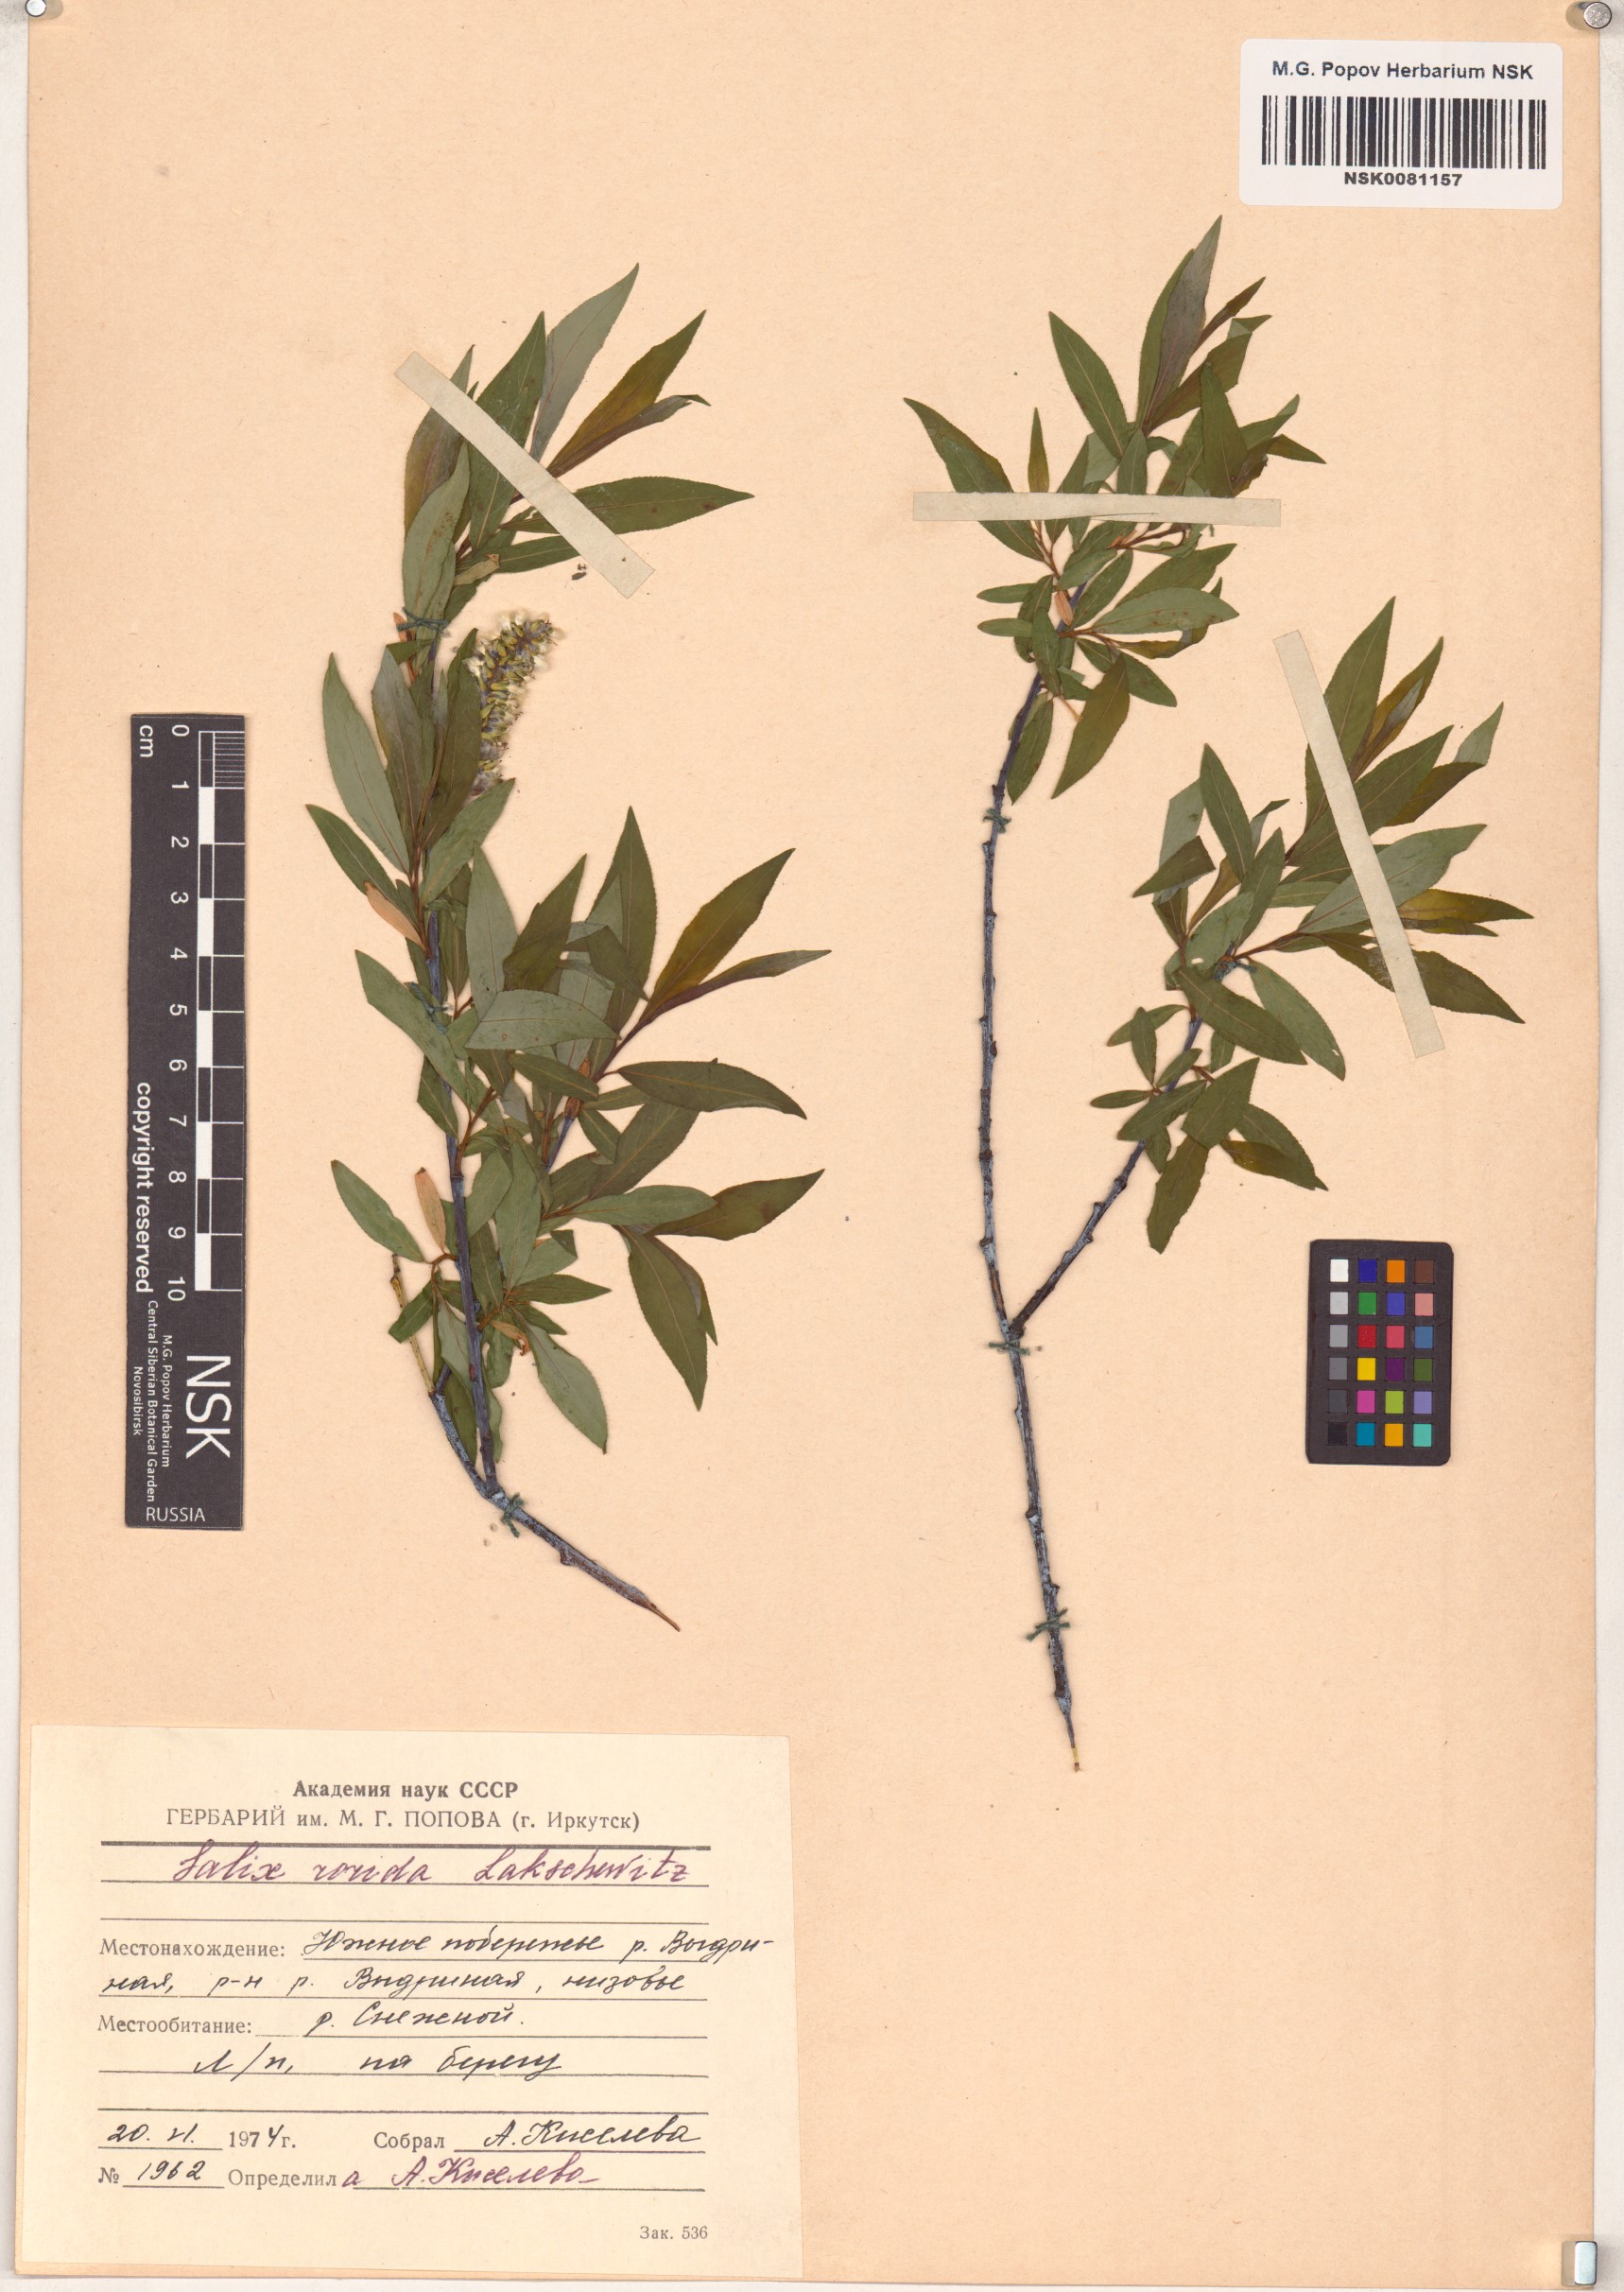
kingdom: Plantae
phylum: Tracheophyta
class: Magnoliopsida
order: Malpighiales
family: Salicaceae
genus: Salix
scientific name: Salix rorida
